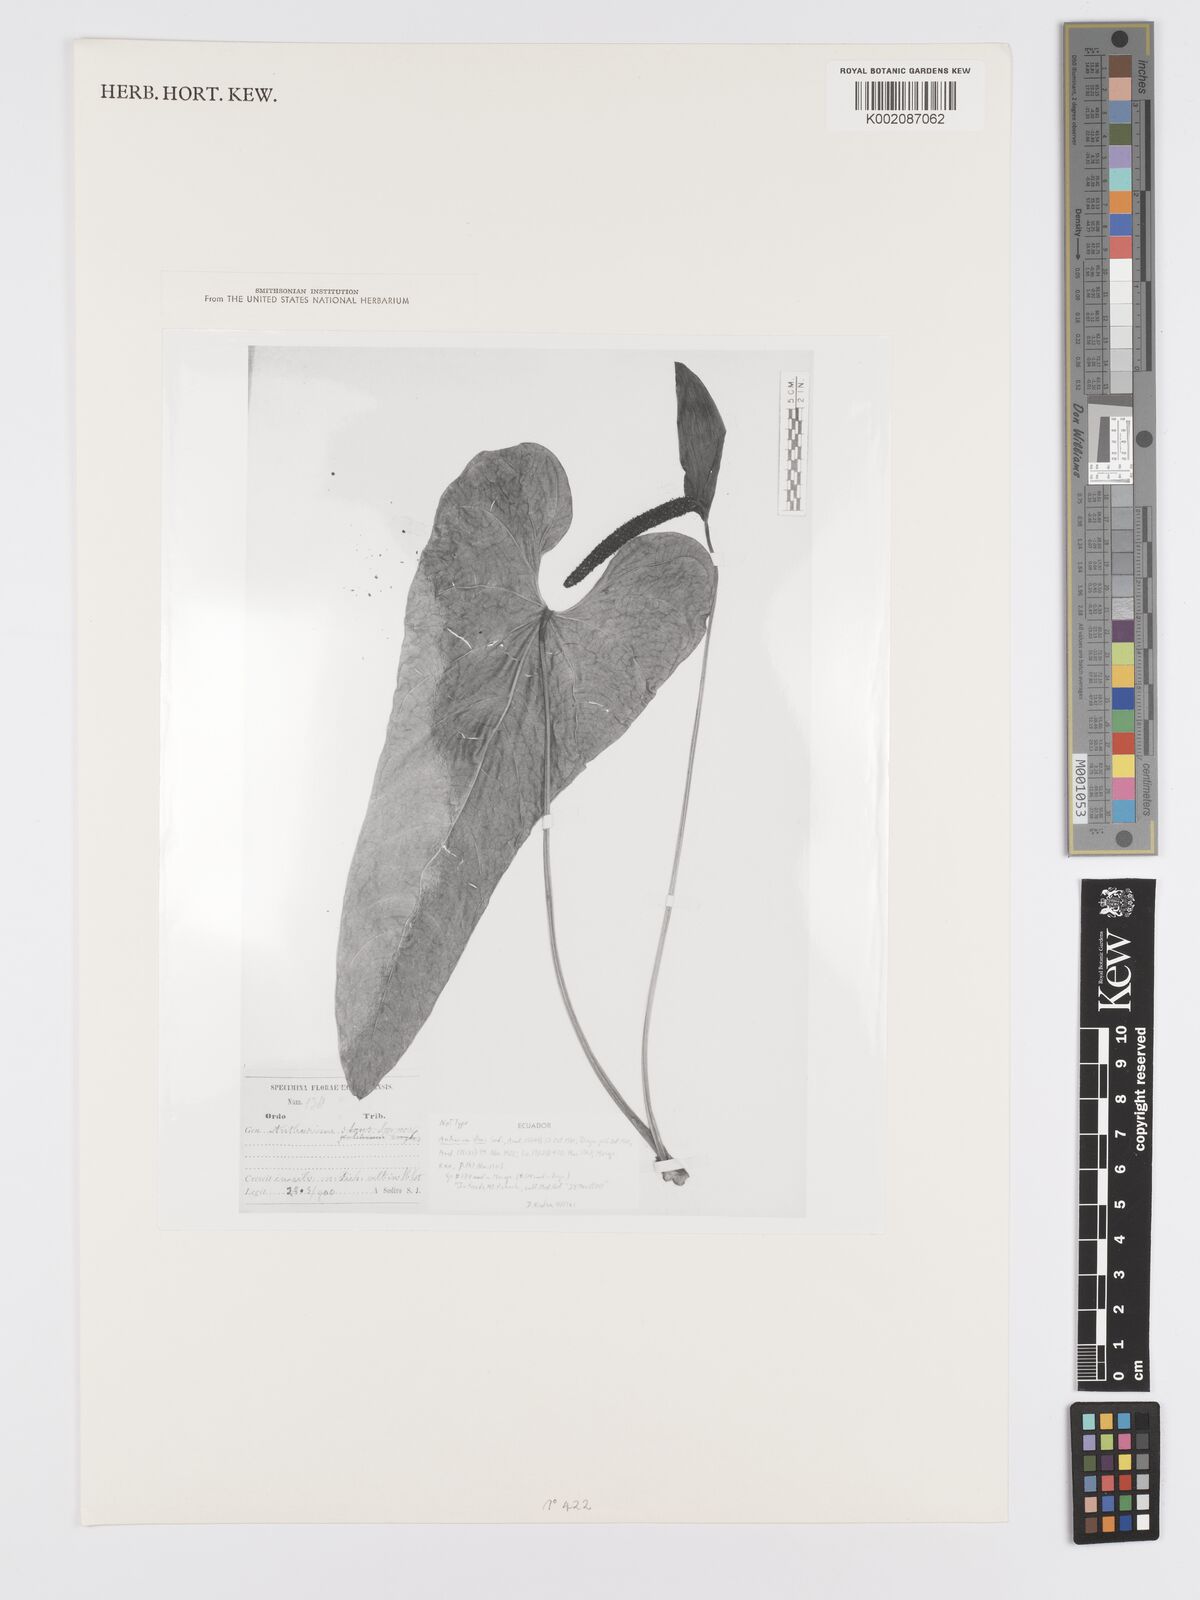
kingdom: Plantae
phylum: Tracheophyta
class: Liliopsida
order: Alismatales
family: Araceae
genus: Anthurium
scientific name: Anthurium oxybelium
